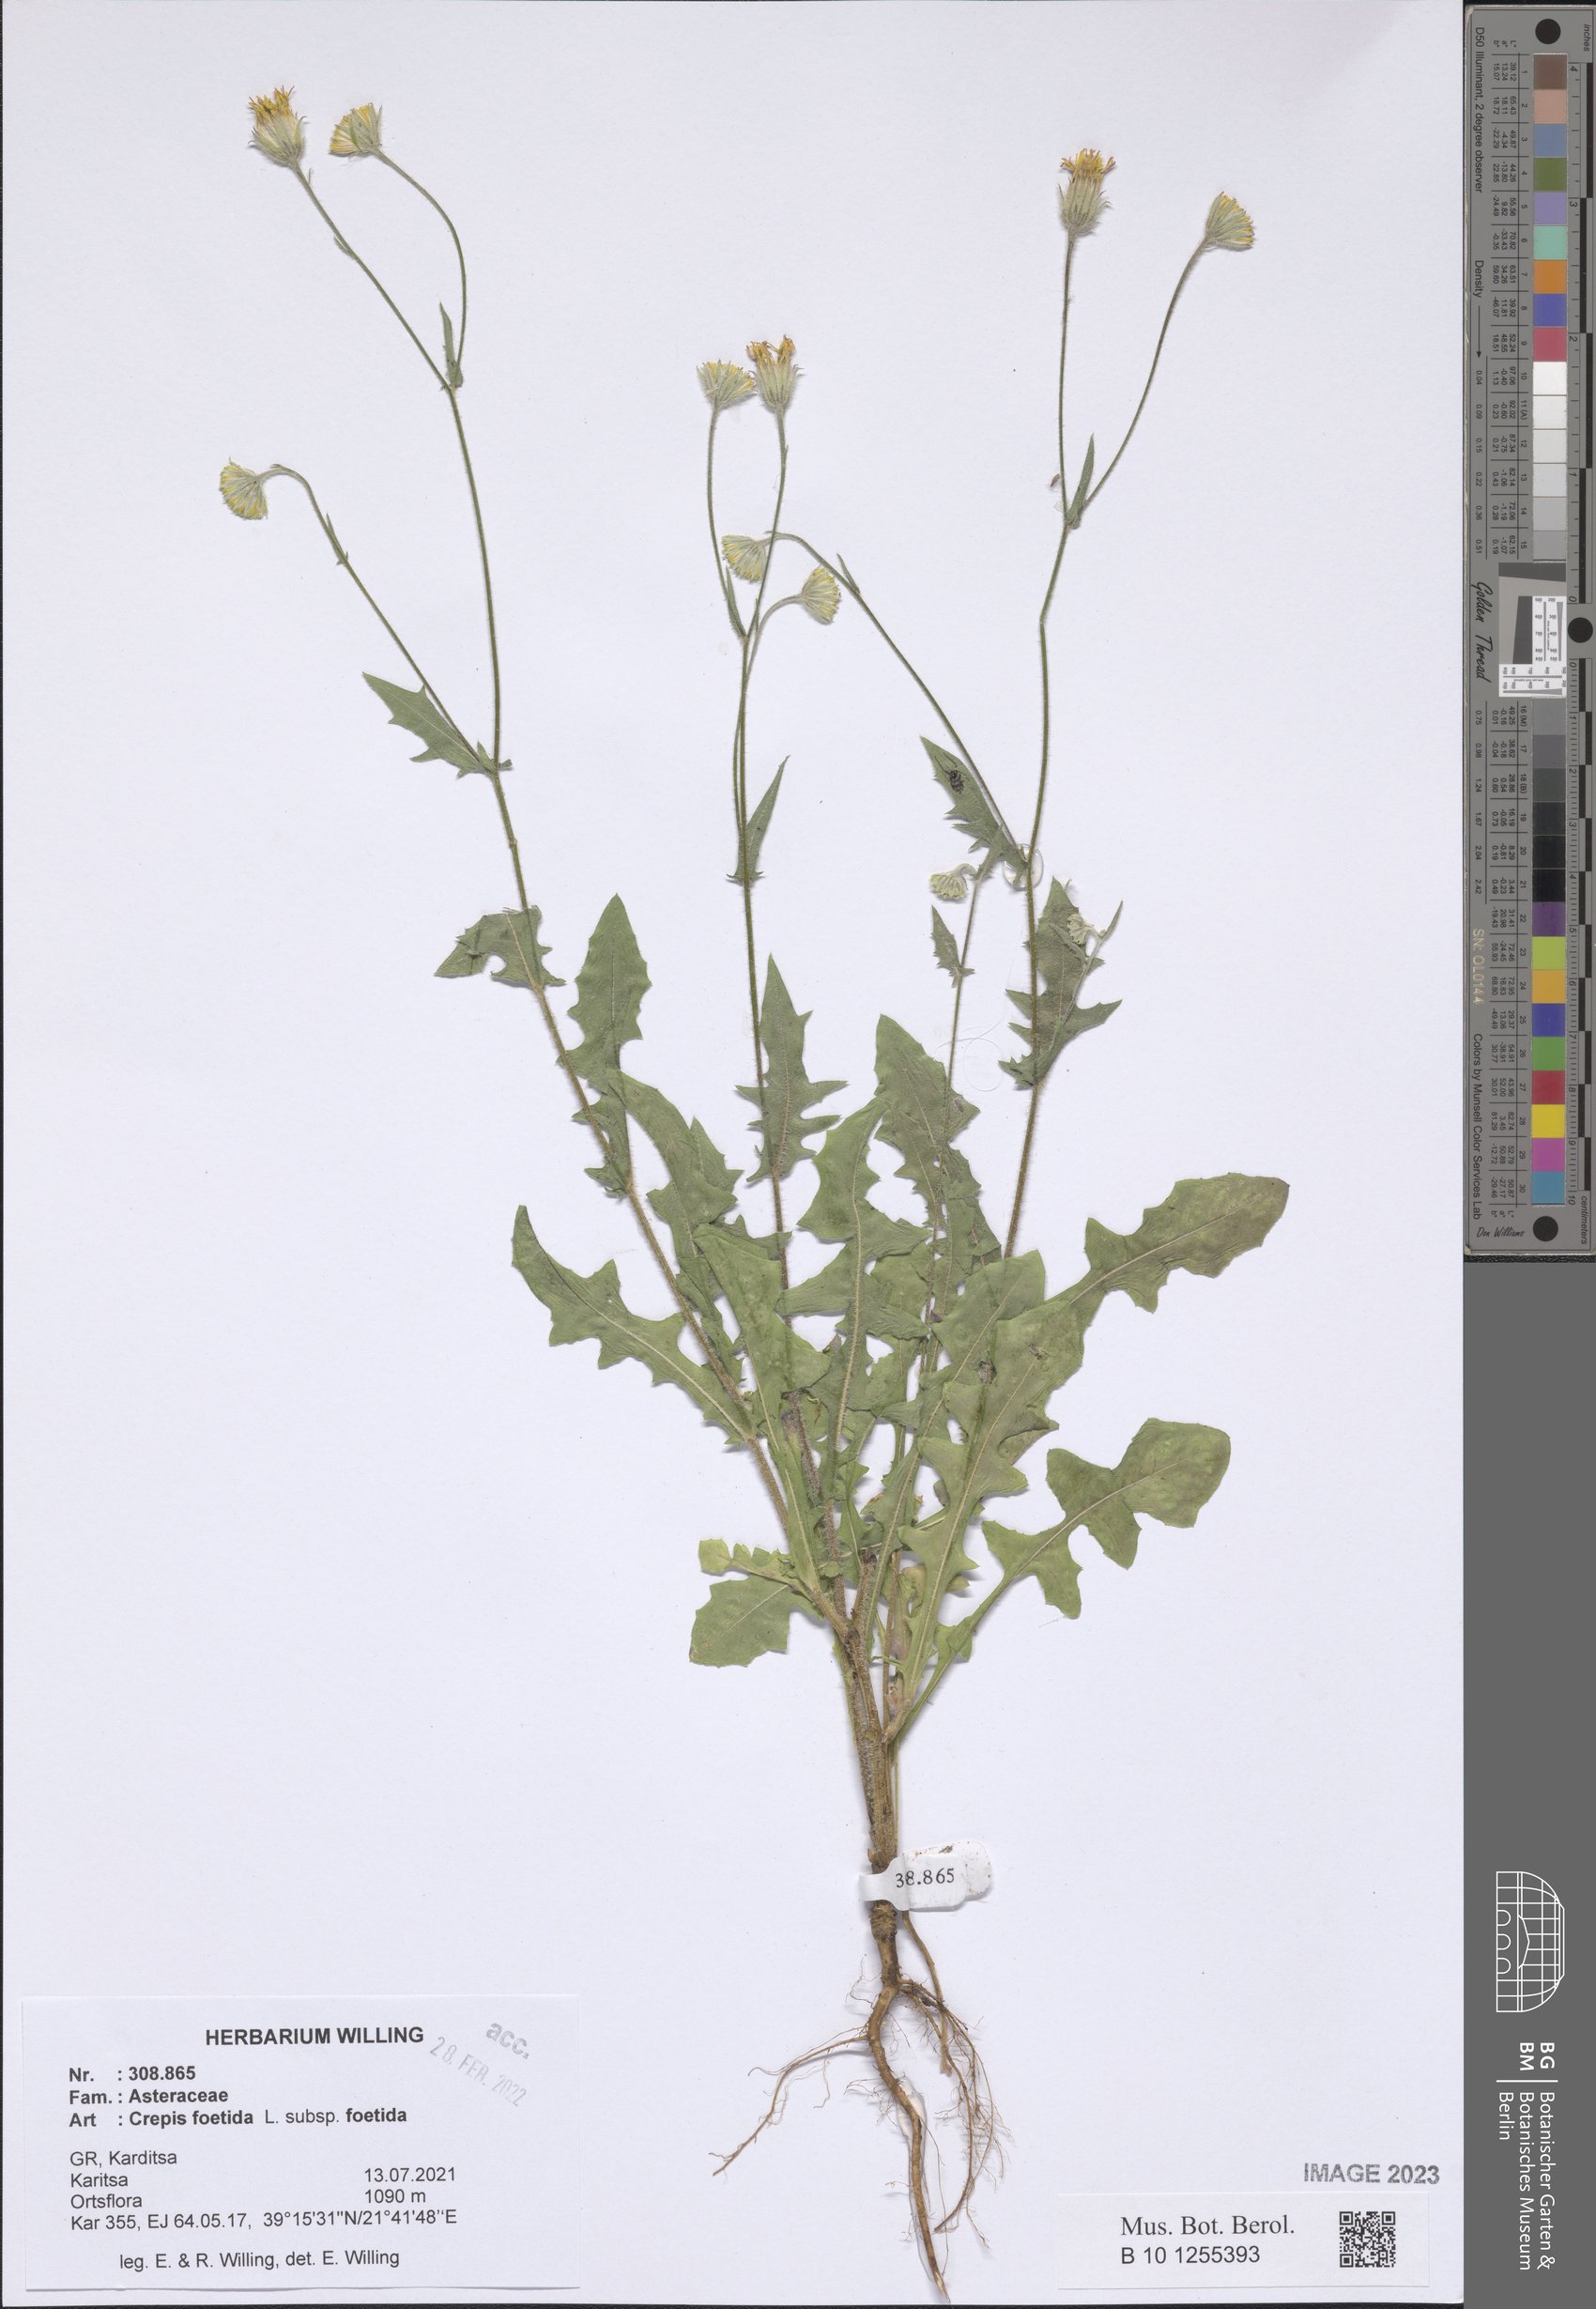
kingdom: Plantae
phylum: Tracheophyta
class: Magnoliopsida
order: Asterales
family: Asteraceae
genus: Crepis
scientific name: Crepis foetida
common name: Stinking hawk's-beard
